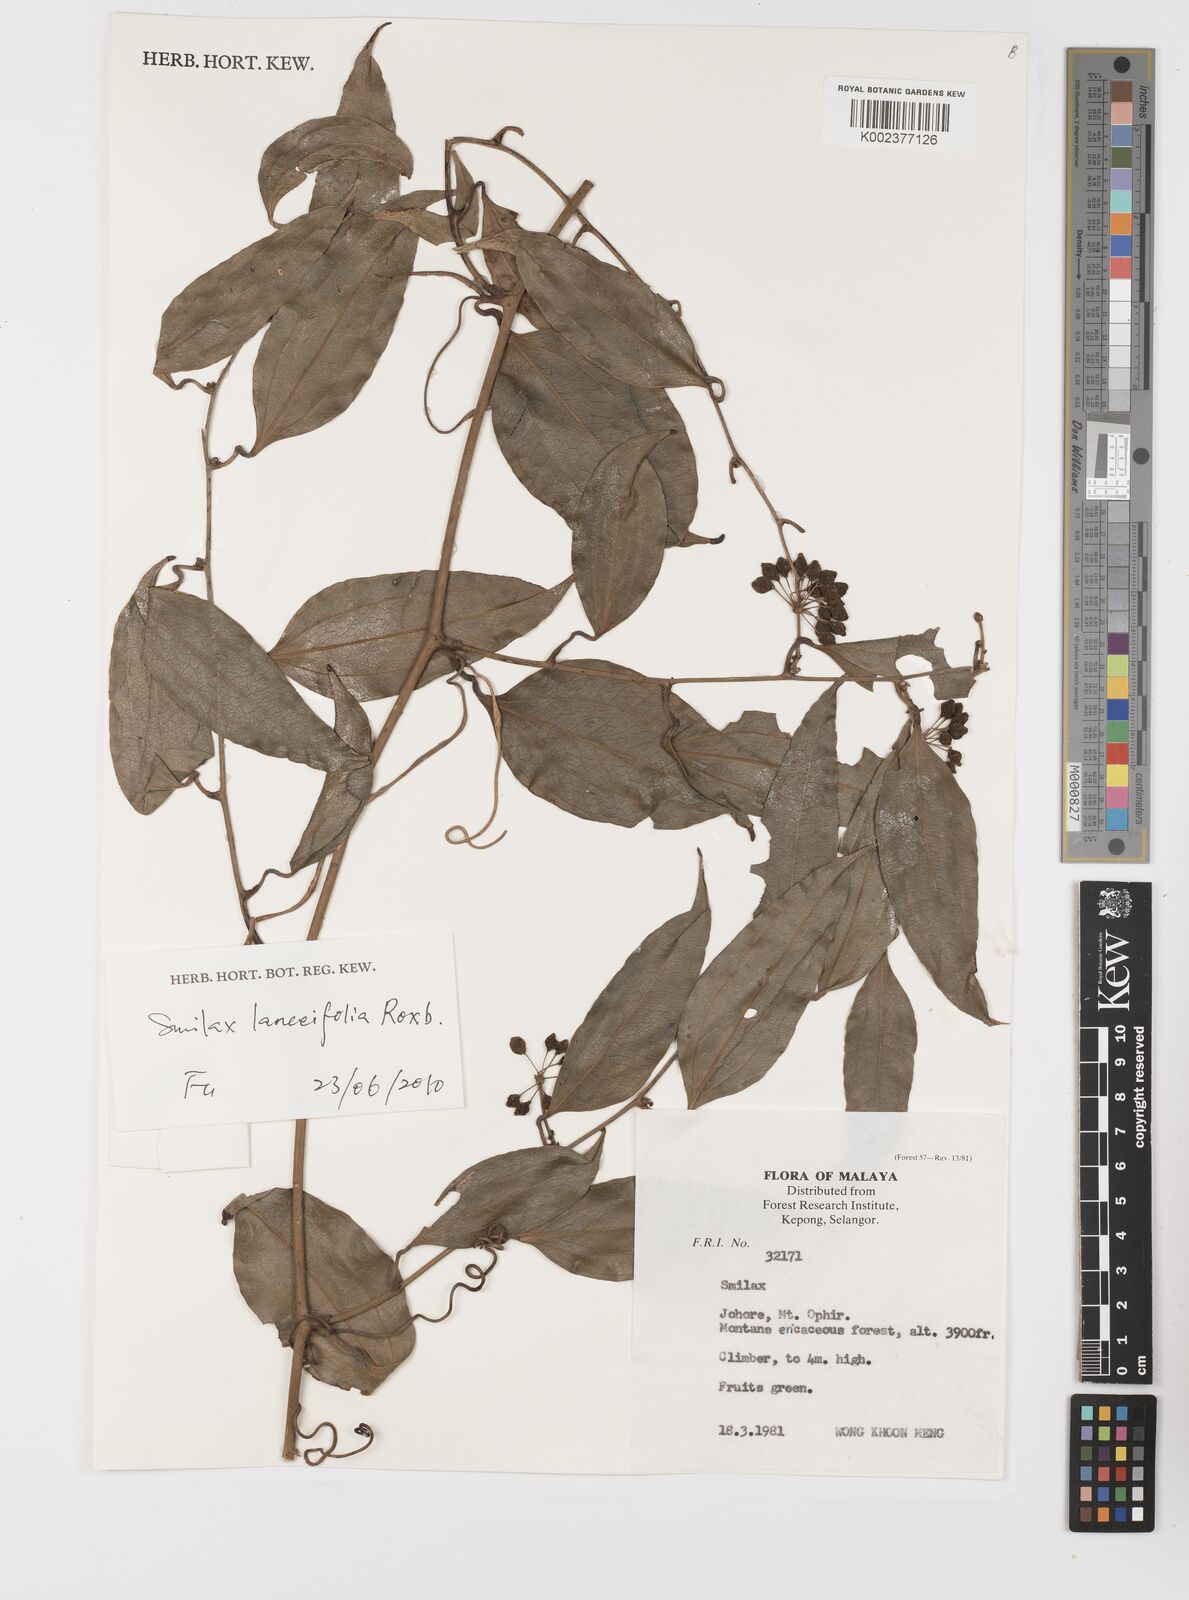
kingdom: Plantae
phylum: Tracheophyta
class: Liliopsida
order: Liliales
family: Smilacaceae
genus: Smilax
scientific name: Smilax
